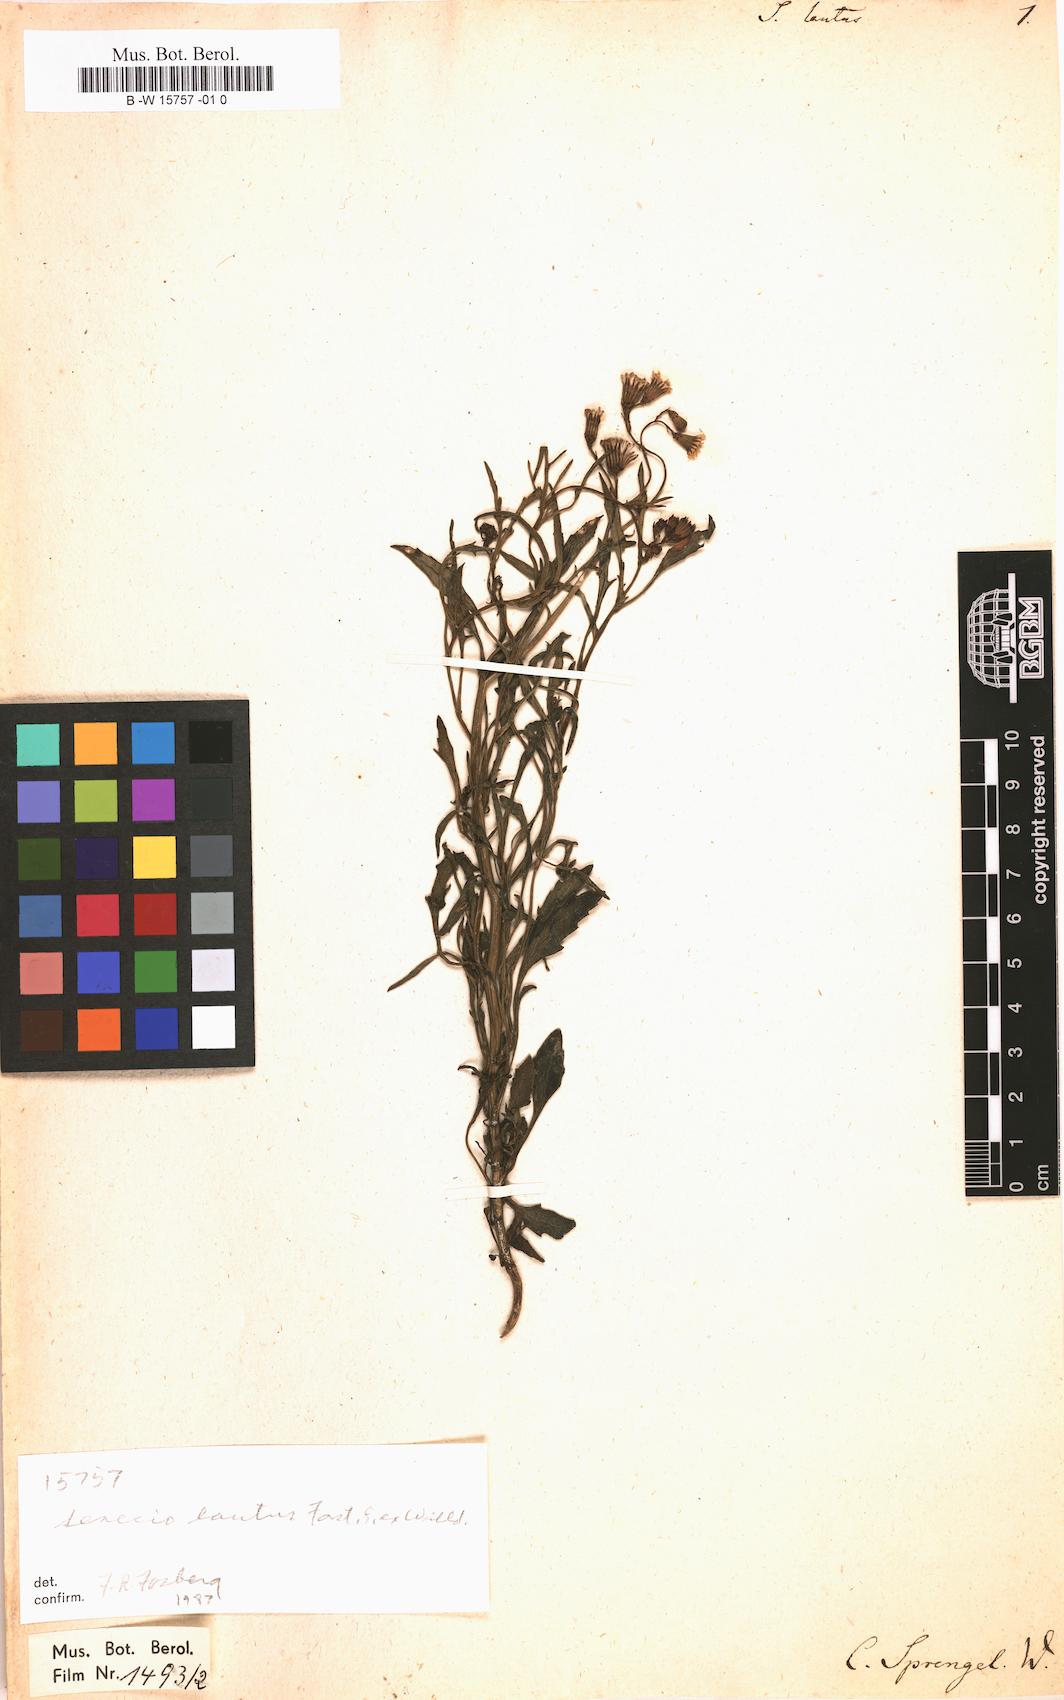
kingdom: Plantae
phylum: Tracheophyta
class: Magnoliopsida
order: Asterales
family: Asteraceae
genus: Senecio
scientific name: Senecio lautus
